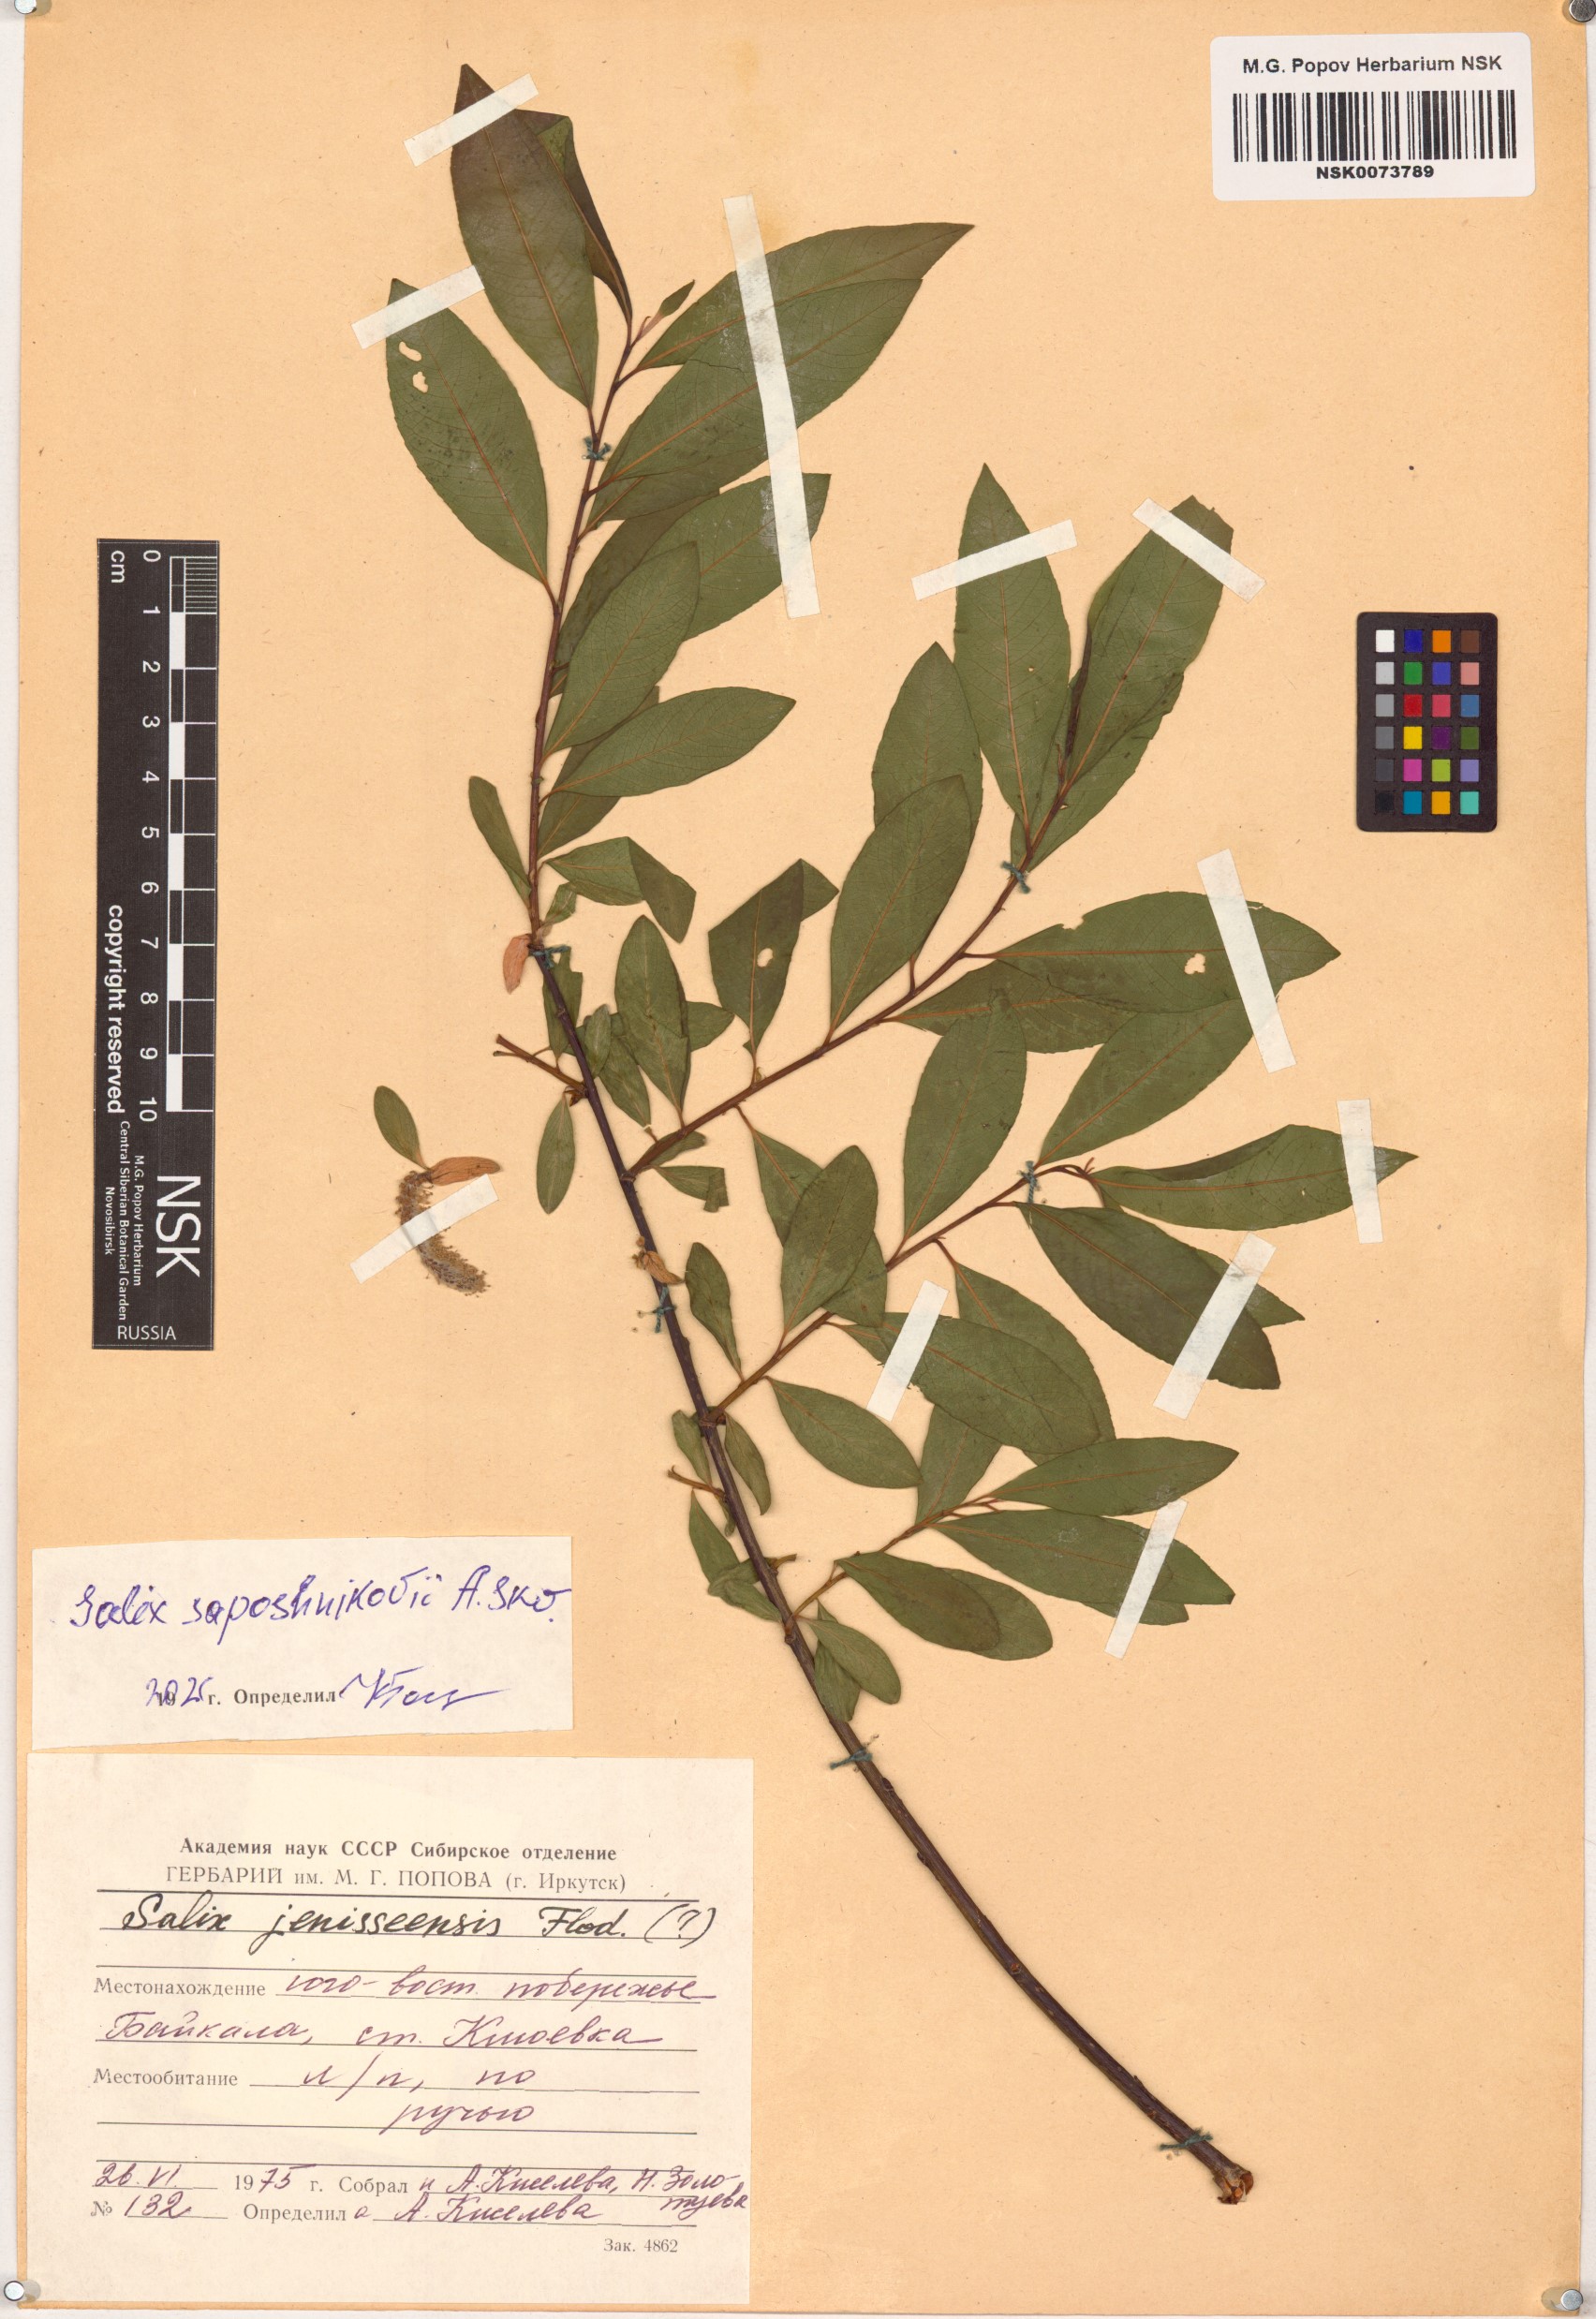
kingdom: Plantae
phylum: Tracheophyta
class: Magnoliopsida
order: Malpighiales
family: Salicaceae
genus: Salix
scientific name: Salix saposhnikovii
